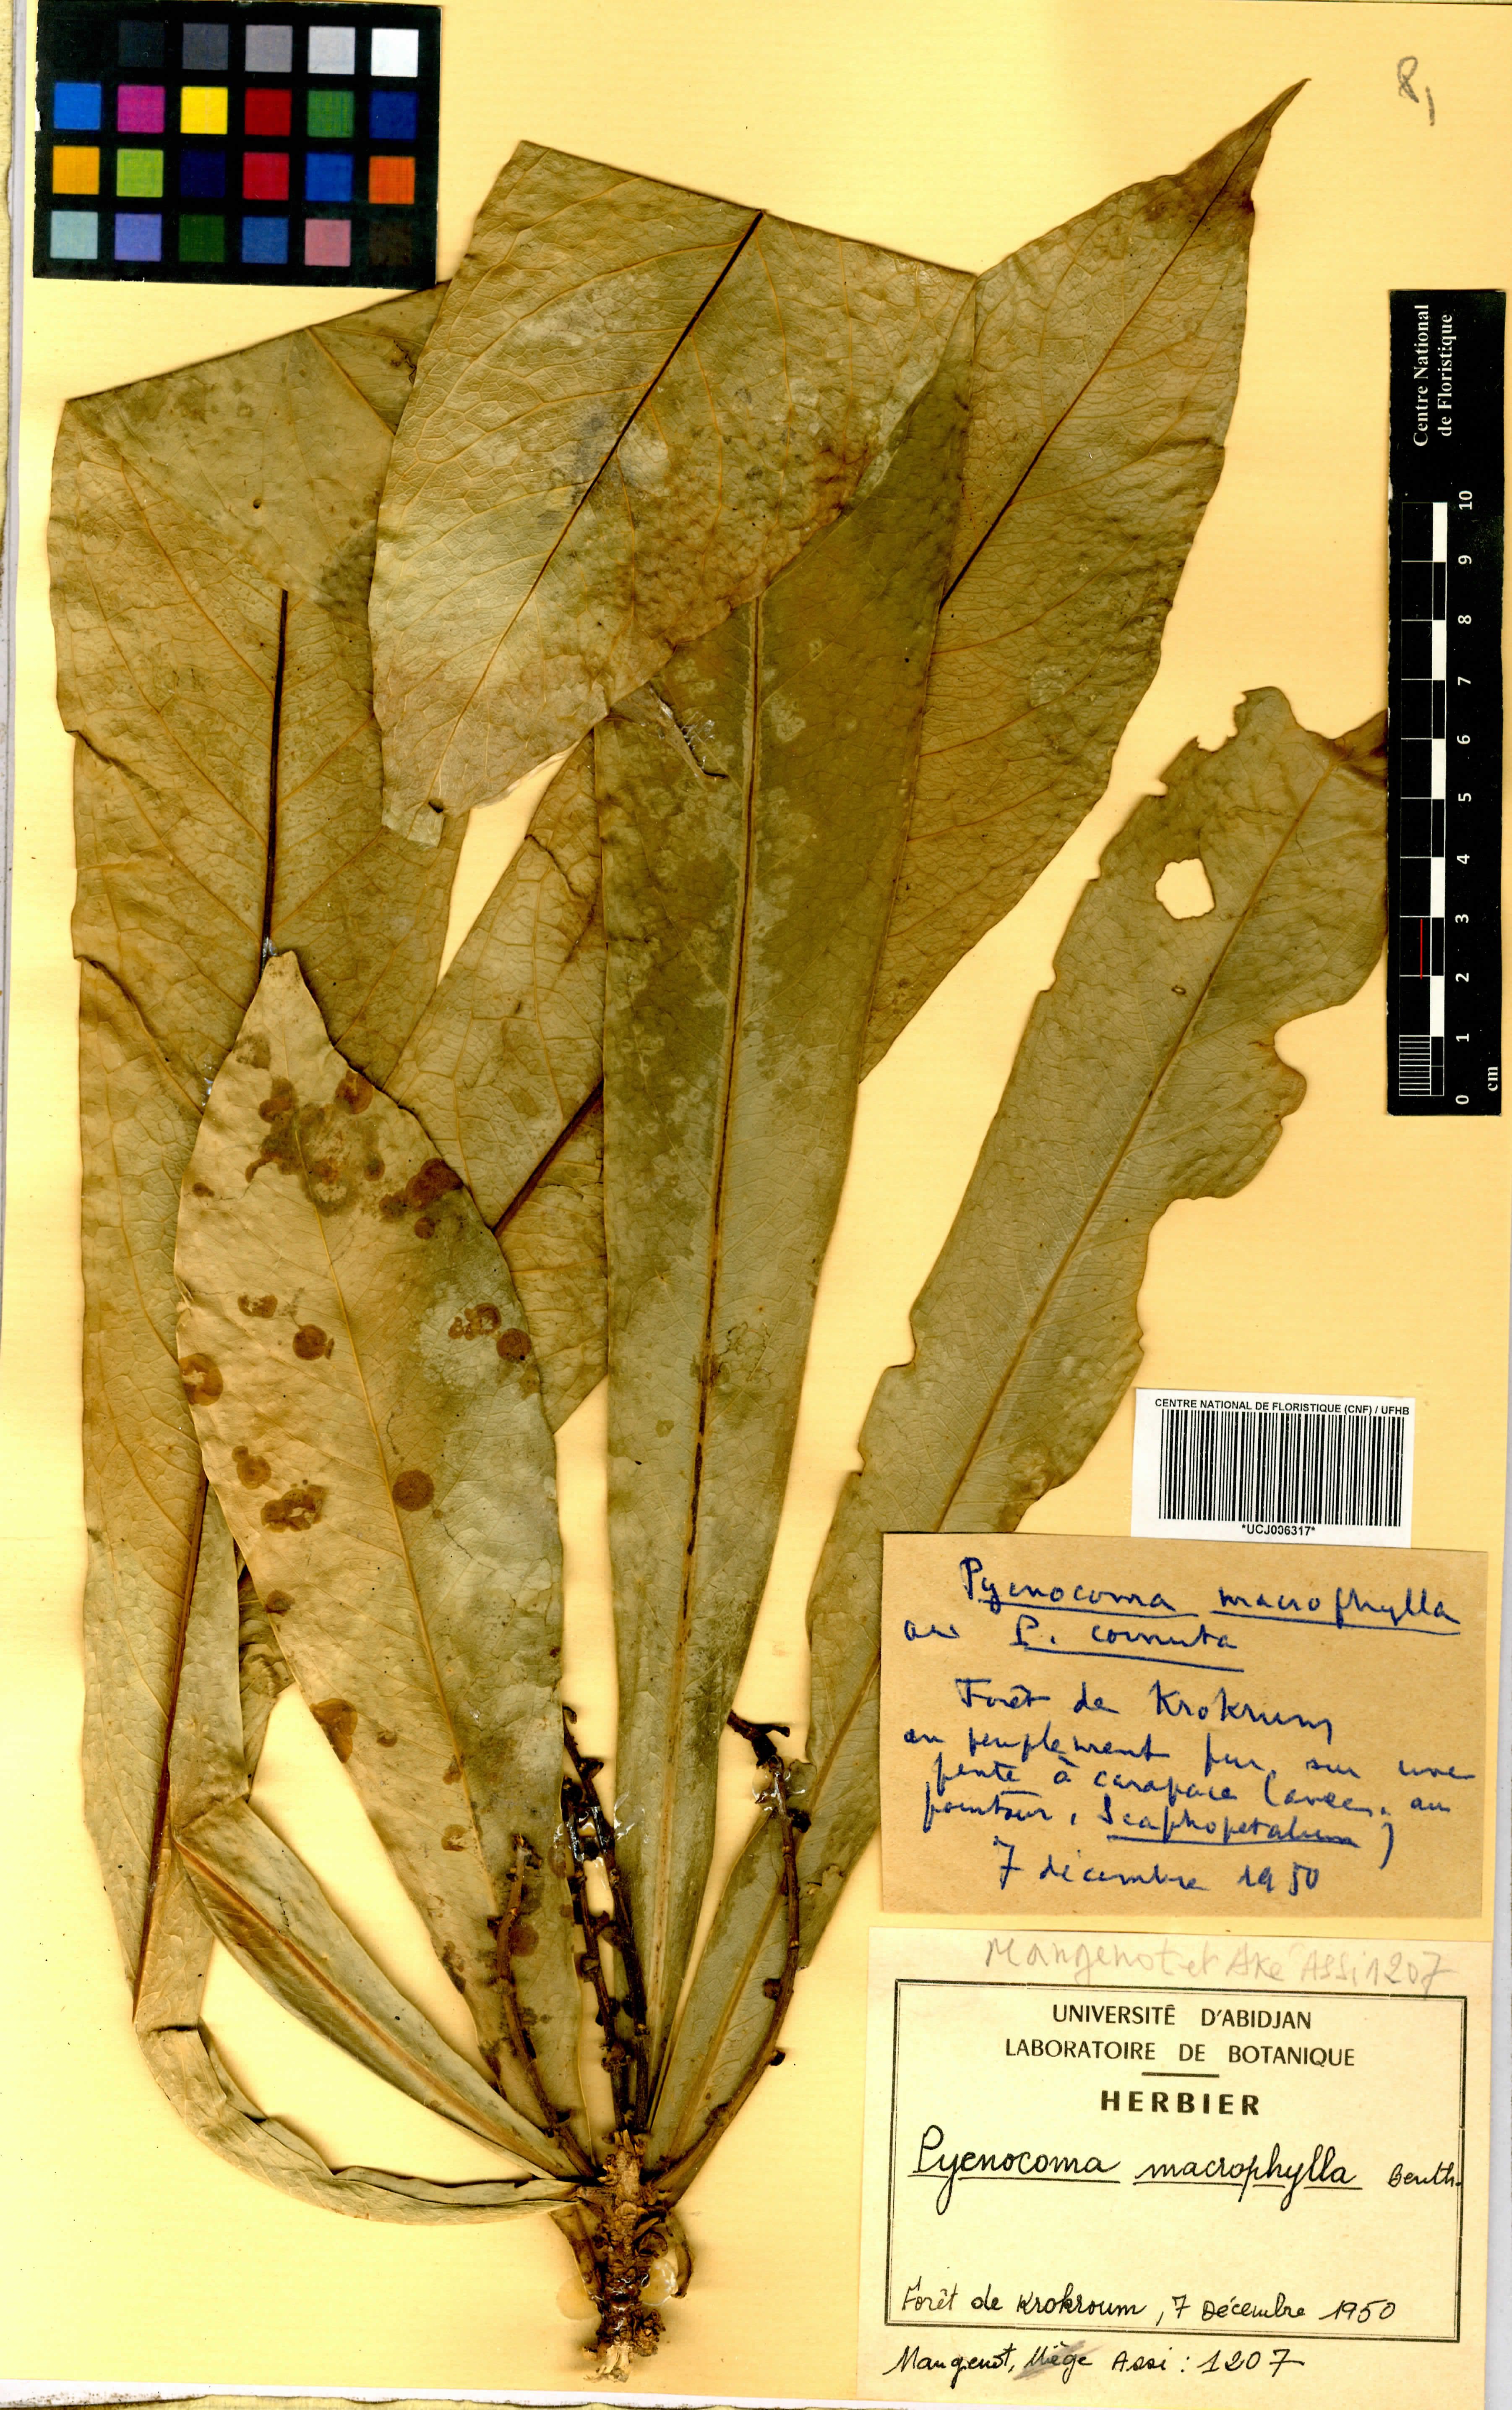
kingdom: Plantae
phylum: Tracheophyta
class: Magnoliopsida
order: Malpighiales
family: Euphorbiaceae
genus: Pycnocoma
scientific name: Pycnocoma macrophylla
